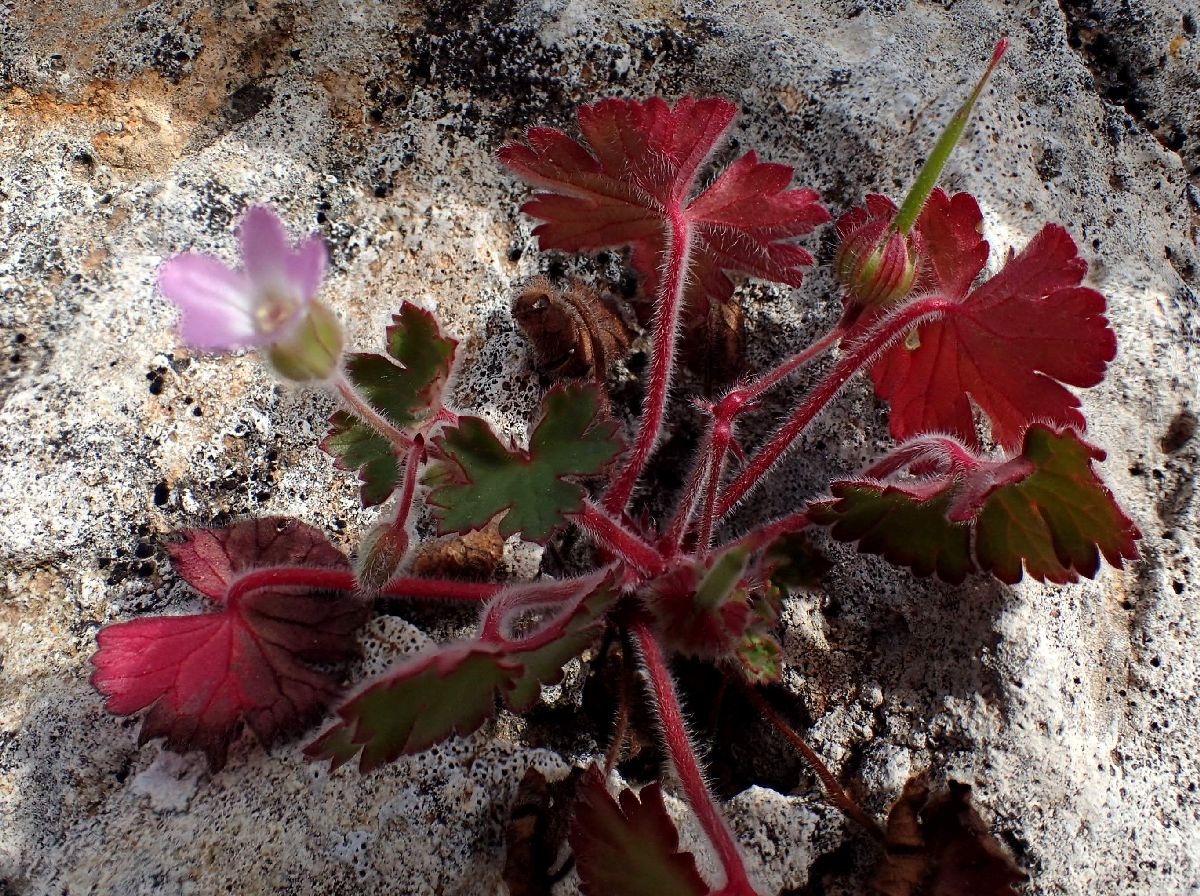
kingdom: Plantae
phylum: Tracheophyta
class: Magnoliopsida
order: Geraniales
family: Geraniaceae
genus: Geranium
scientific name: Geranium rotundifolium
